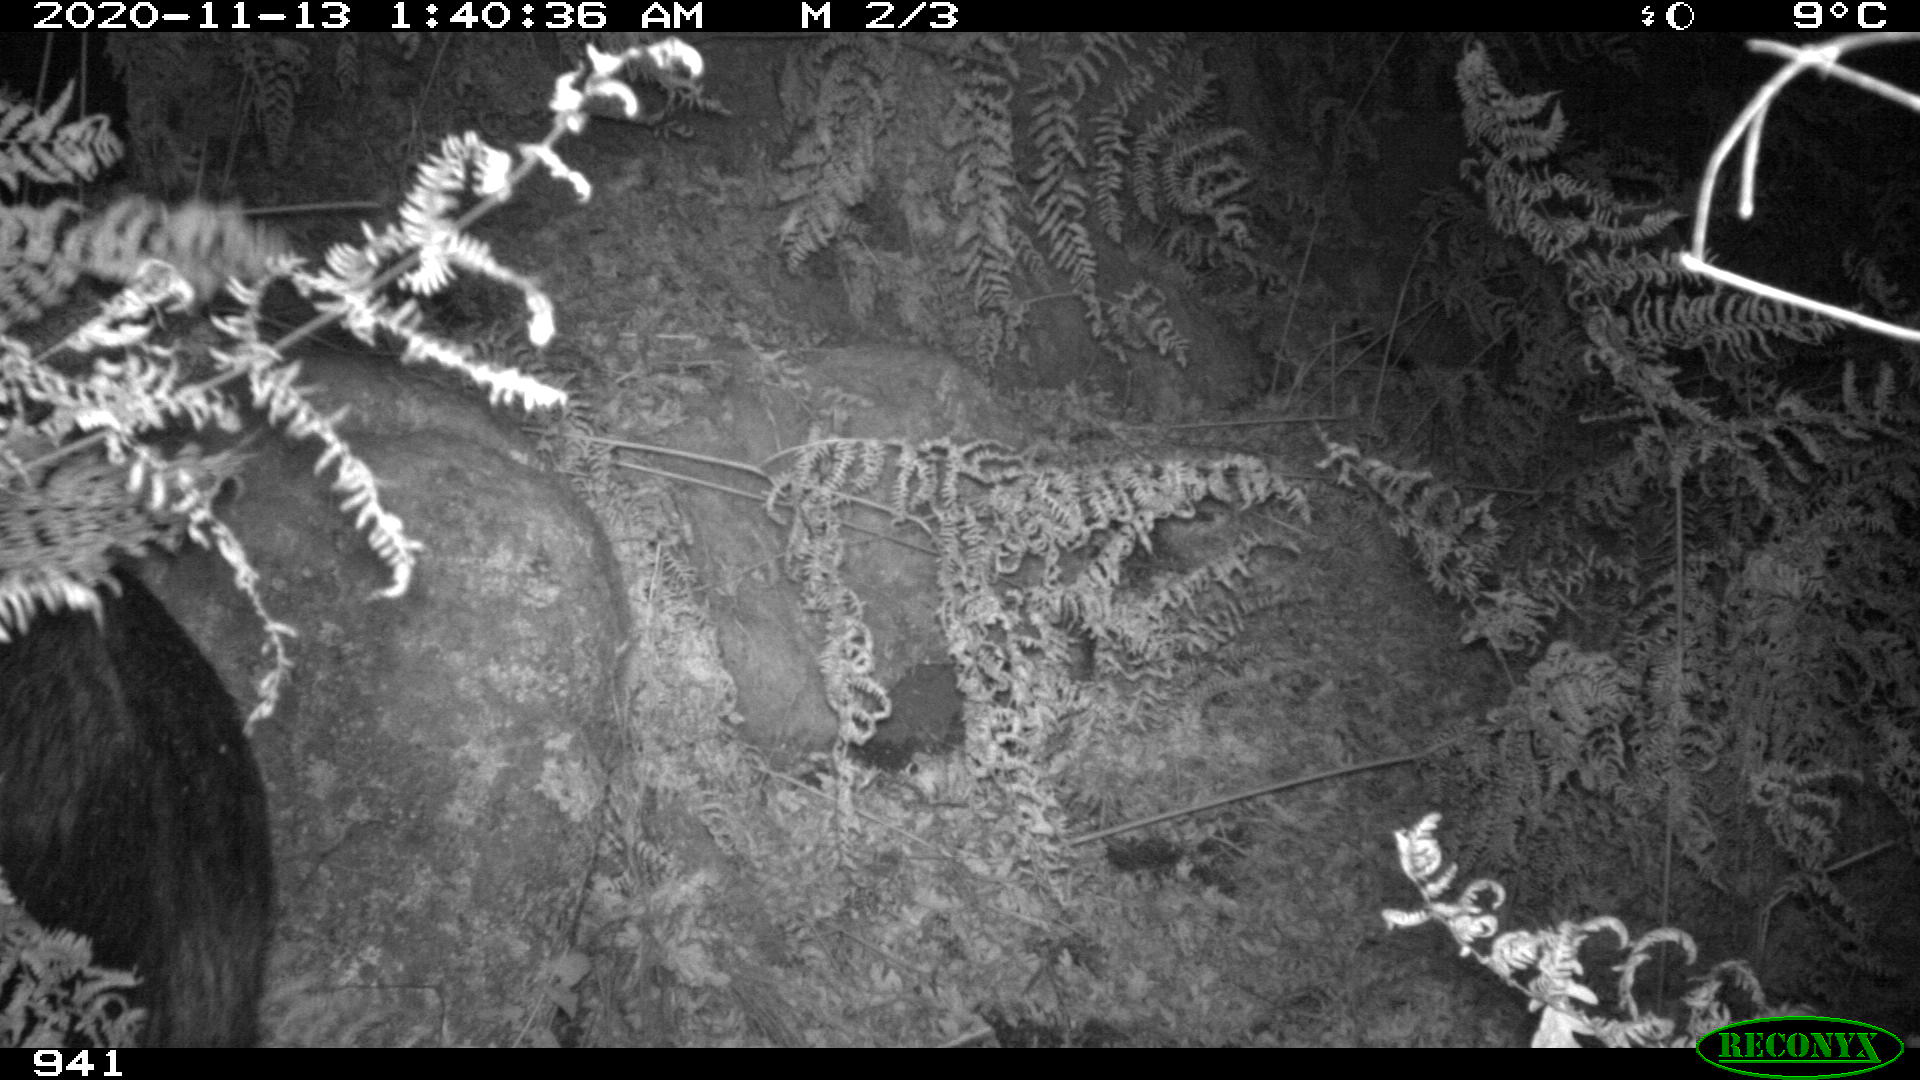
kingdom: Animalia
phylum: Chordata
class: Mammalia
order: Artiodactyla
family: Suidae
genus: Sus
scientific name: Sus scrofa
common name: Wild boar
